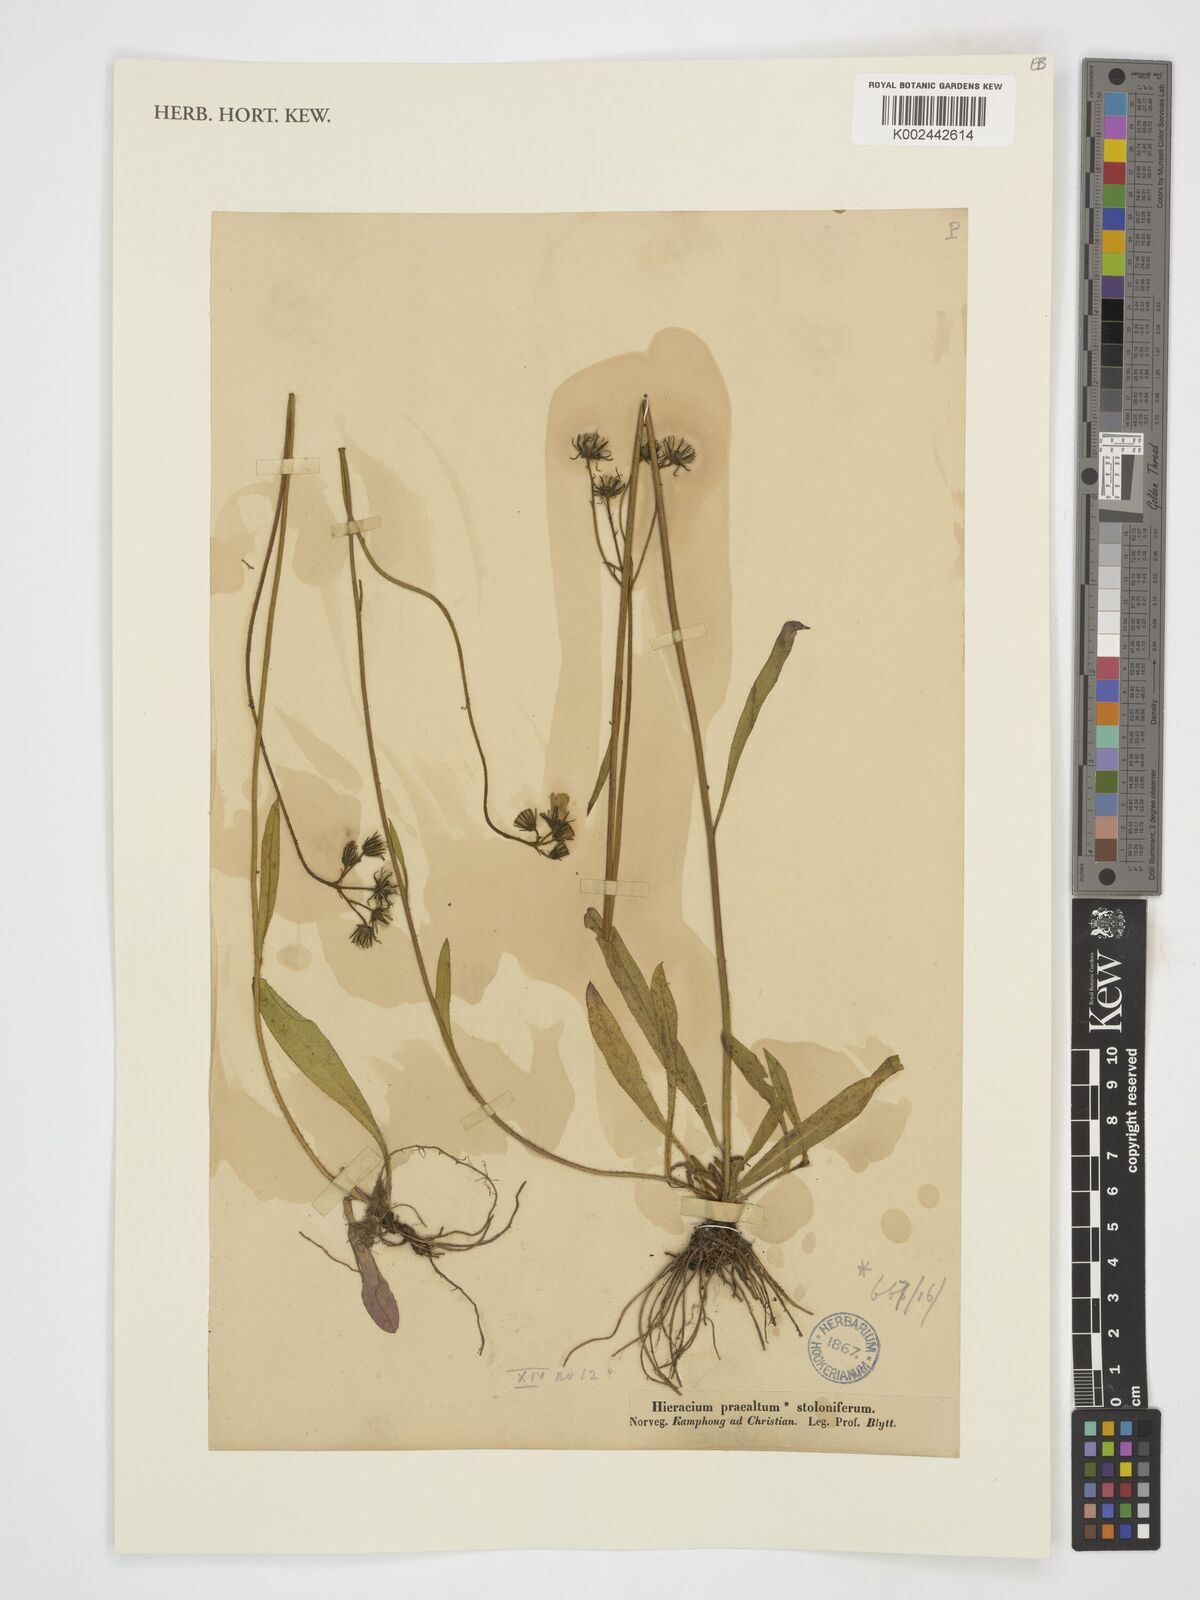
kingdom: Plantae
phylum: Tracheophyta
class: Magnoliopsida
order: Asterales
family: Asteraceae
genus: Pilosella
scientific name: Pilosella piloselloides
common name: Glaucous king-devil
